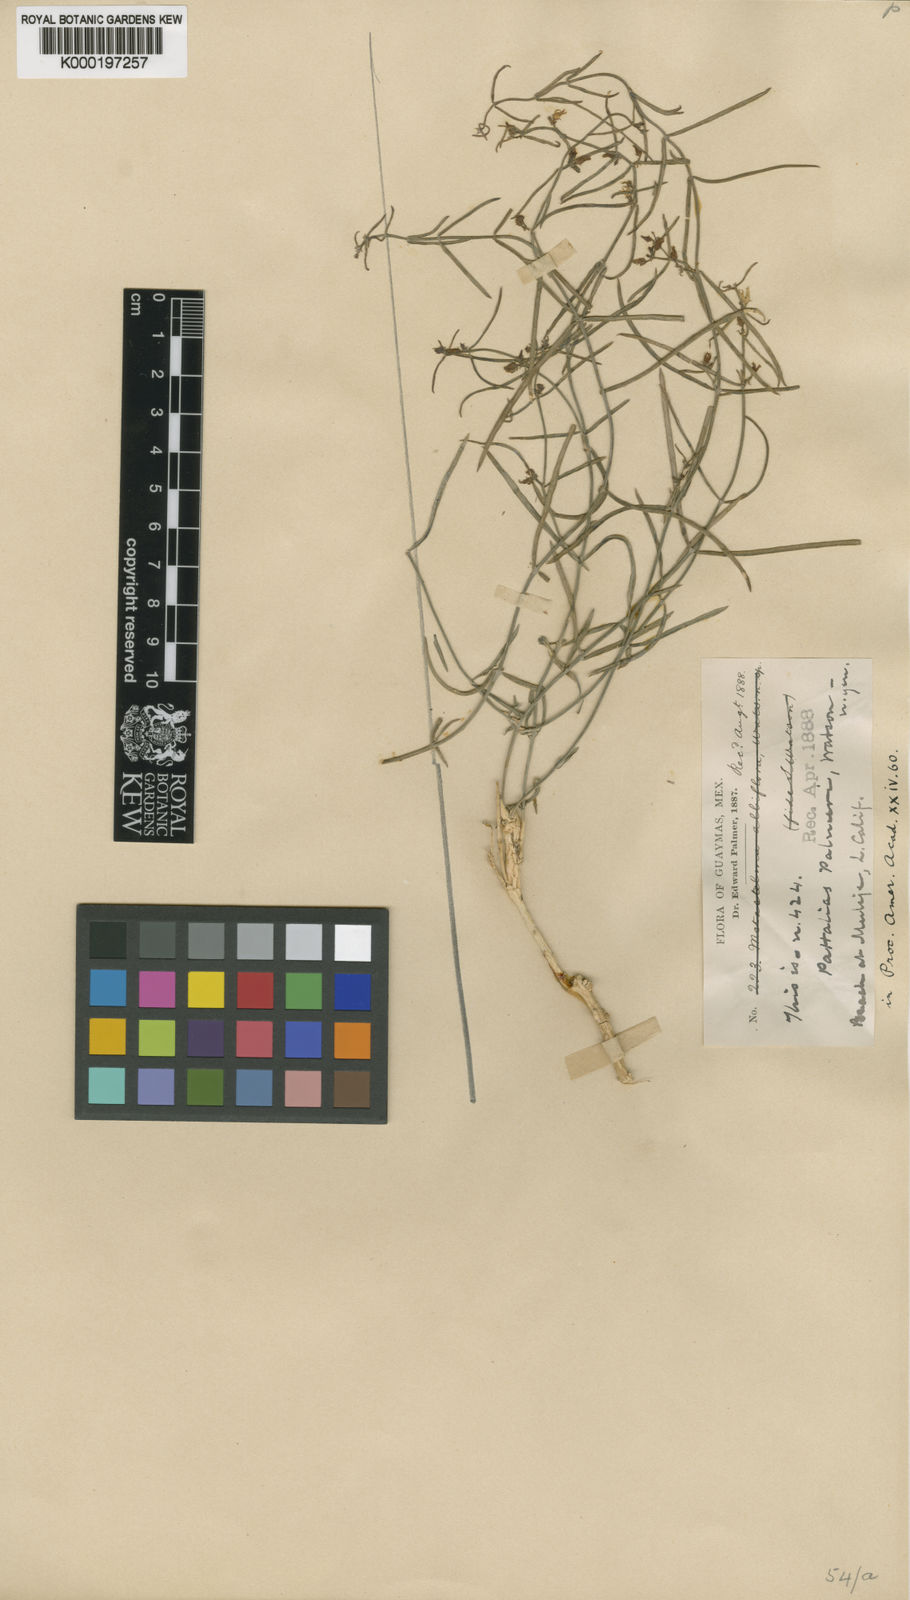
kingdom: Plantae
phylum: Tracheophyta
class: Magnoliopsida
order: Gentianales
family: Apocynaceae
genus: Pattalias
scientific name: Pattalias palmeri
